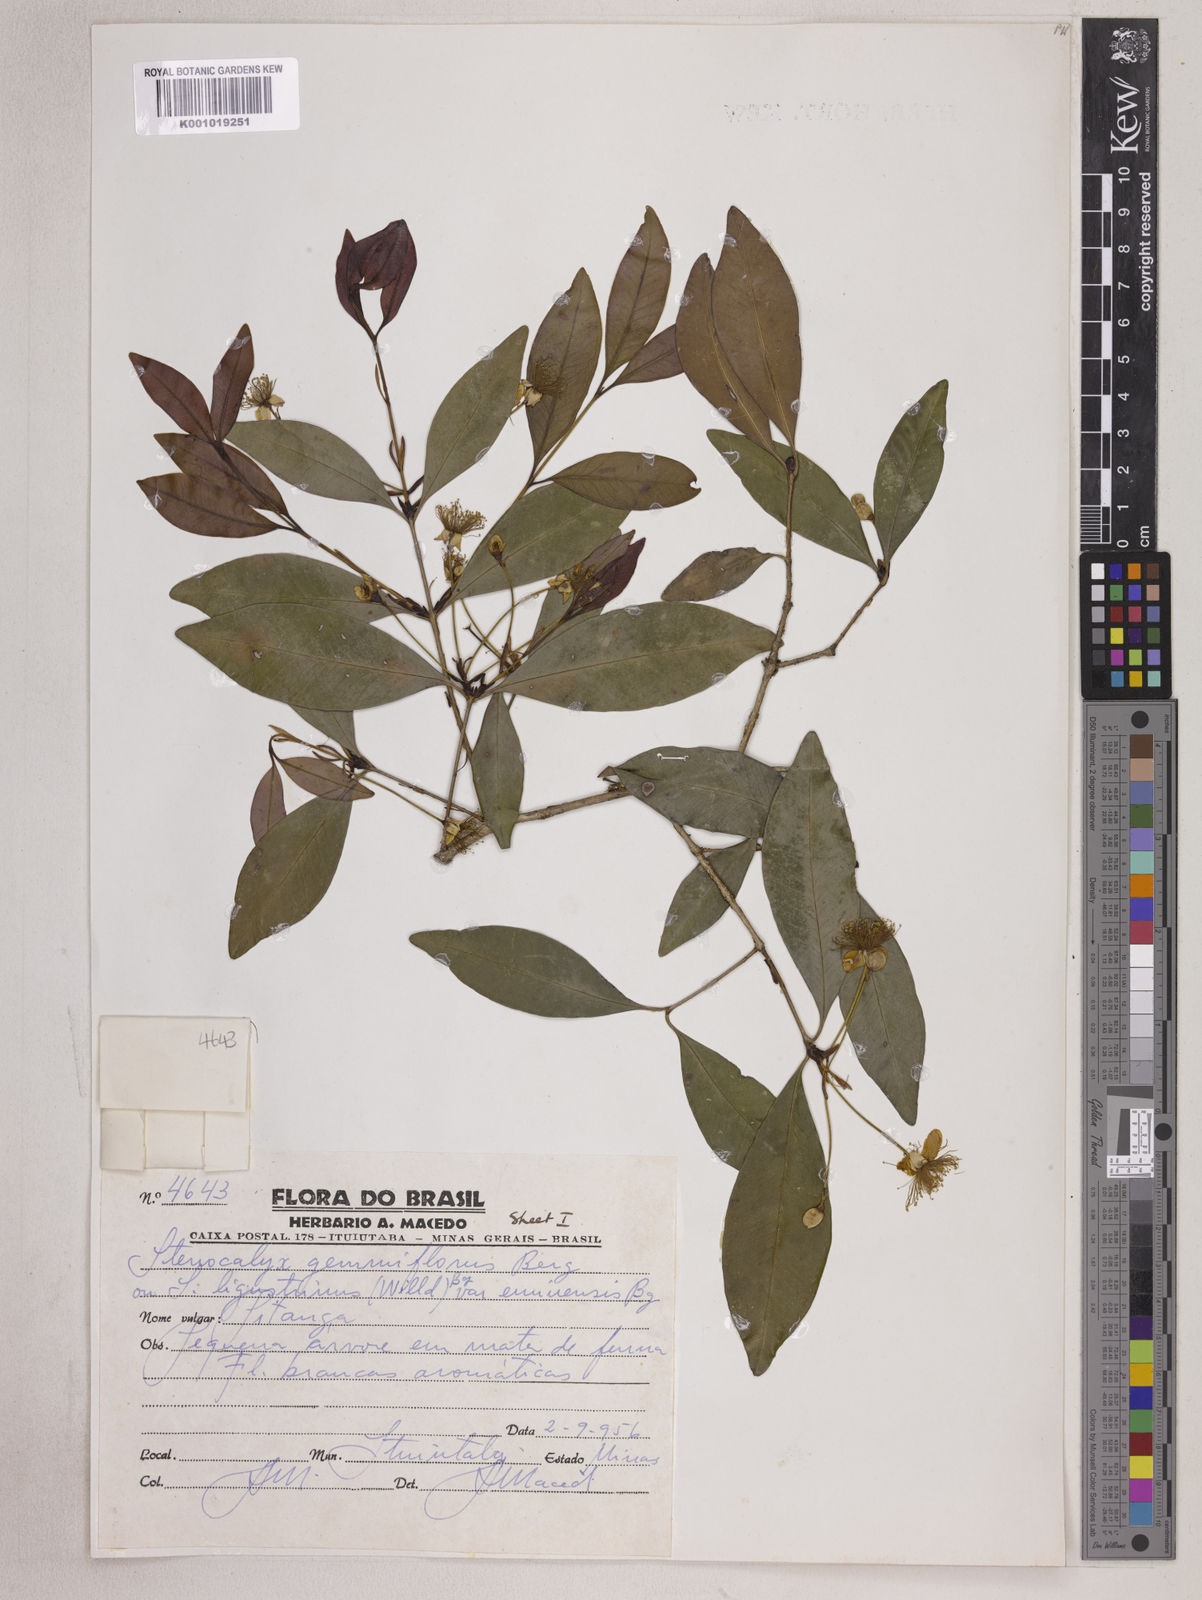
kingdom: Plantae
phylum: Tracheophyta
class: Magnoliopsida
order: Myrtales
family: Myrtaceae
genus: Eugenia
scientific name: Eugenia ophthalmantha
